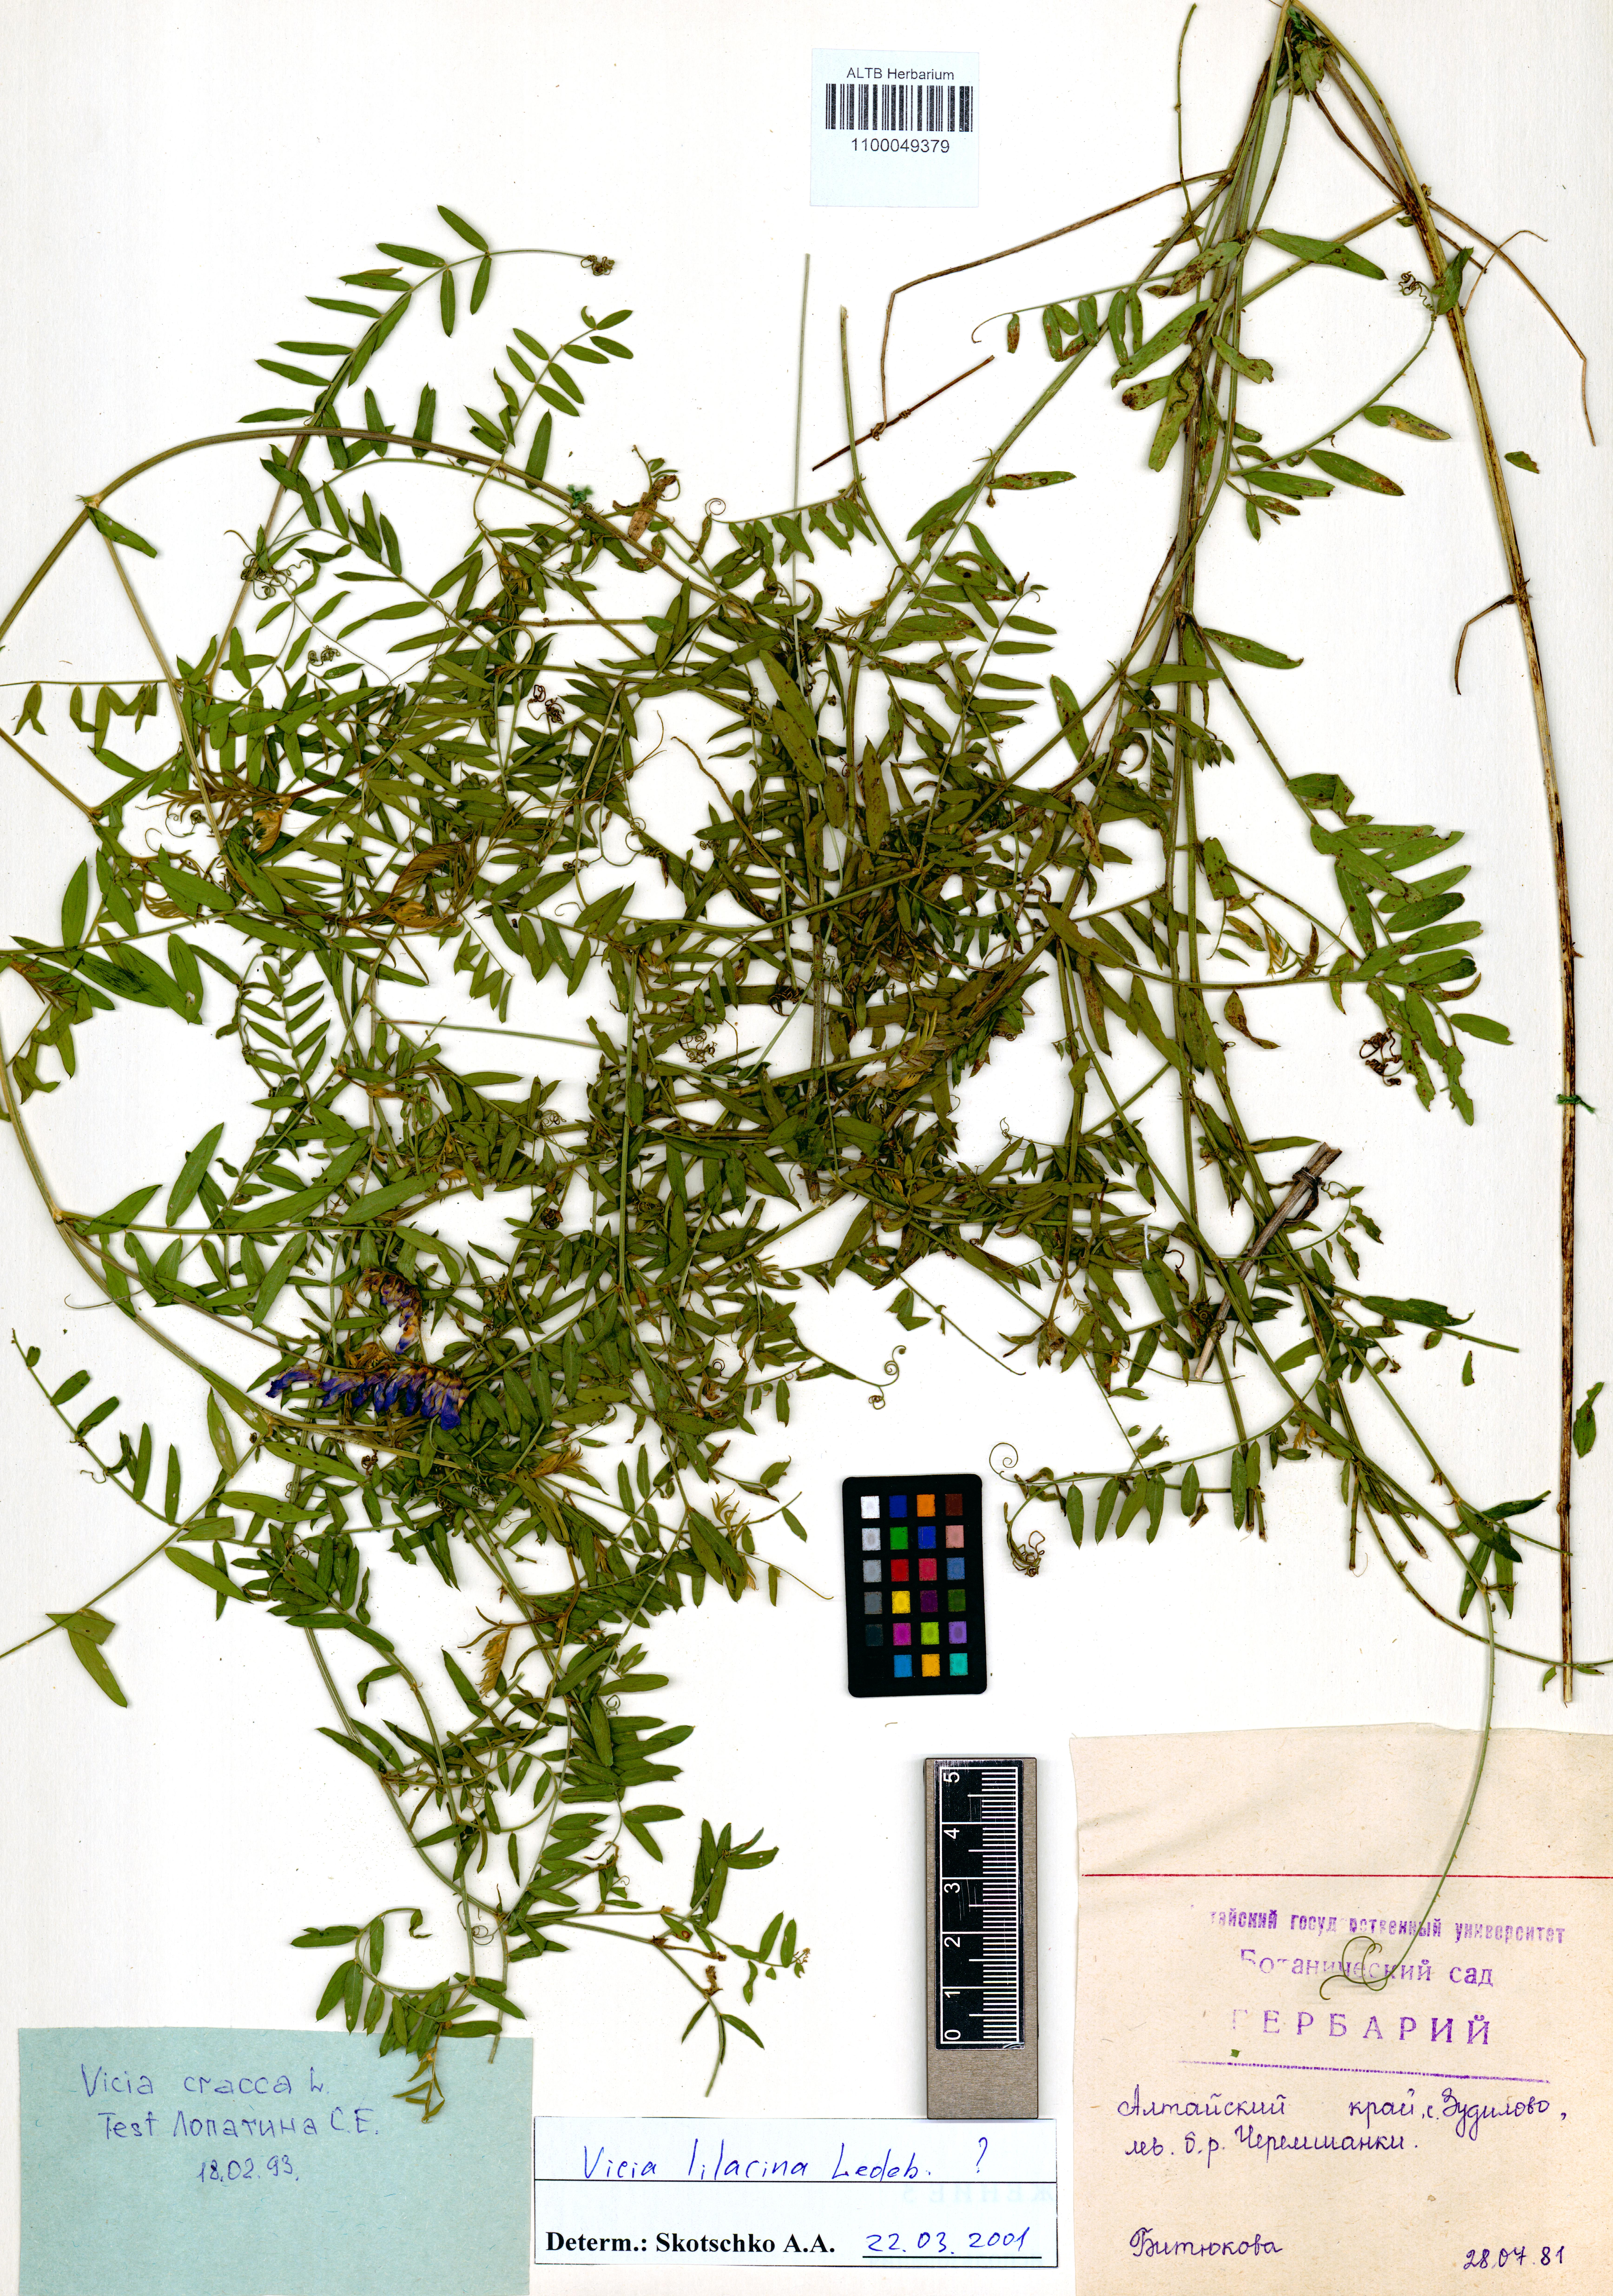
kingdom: Plantae
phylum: Tracheophyta
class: Magnoliopsida
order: Fabales
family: Fabaceae
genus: Vicia
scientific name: Vicia lilacina
